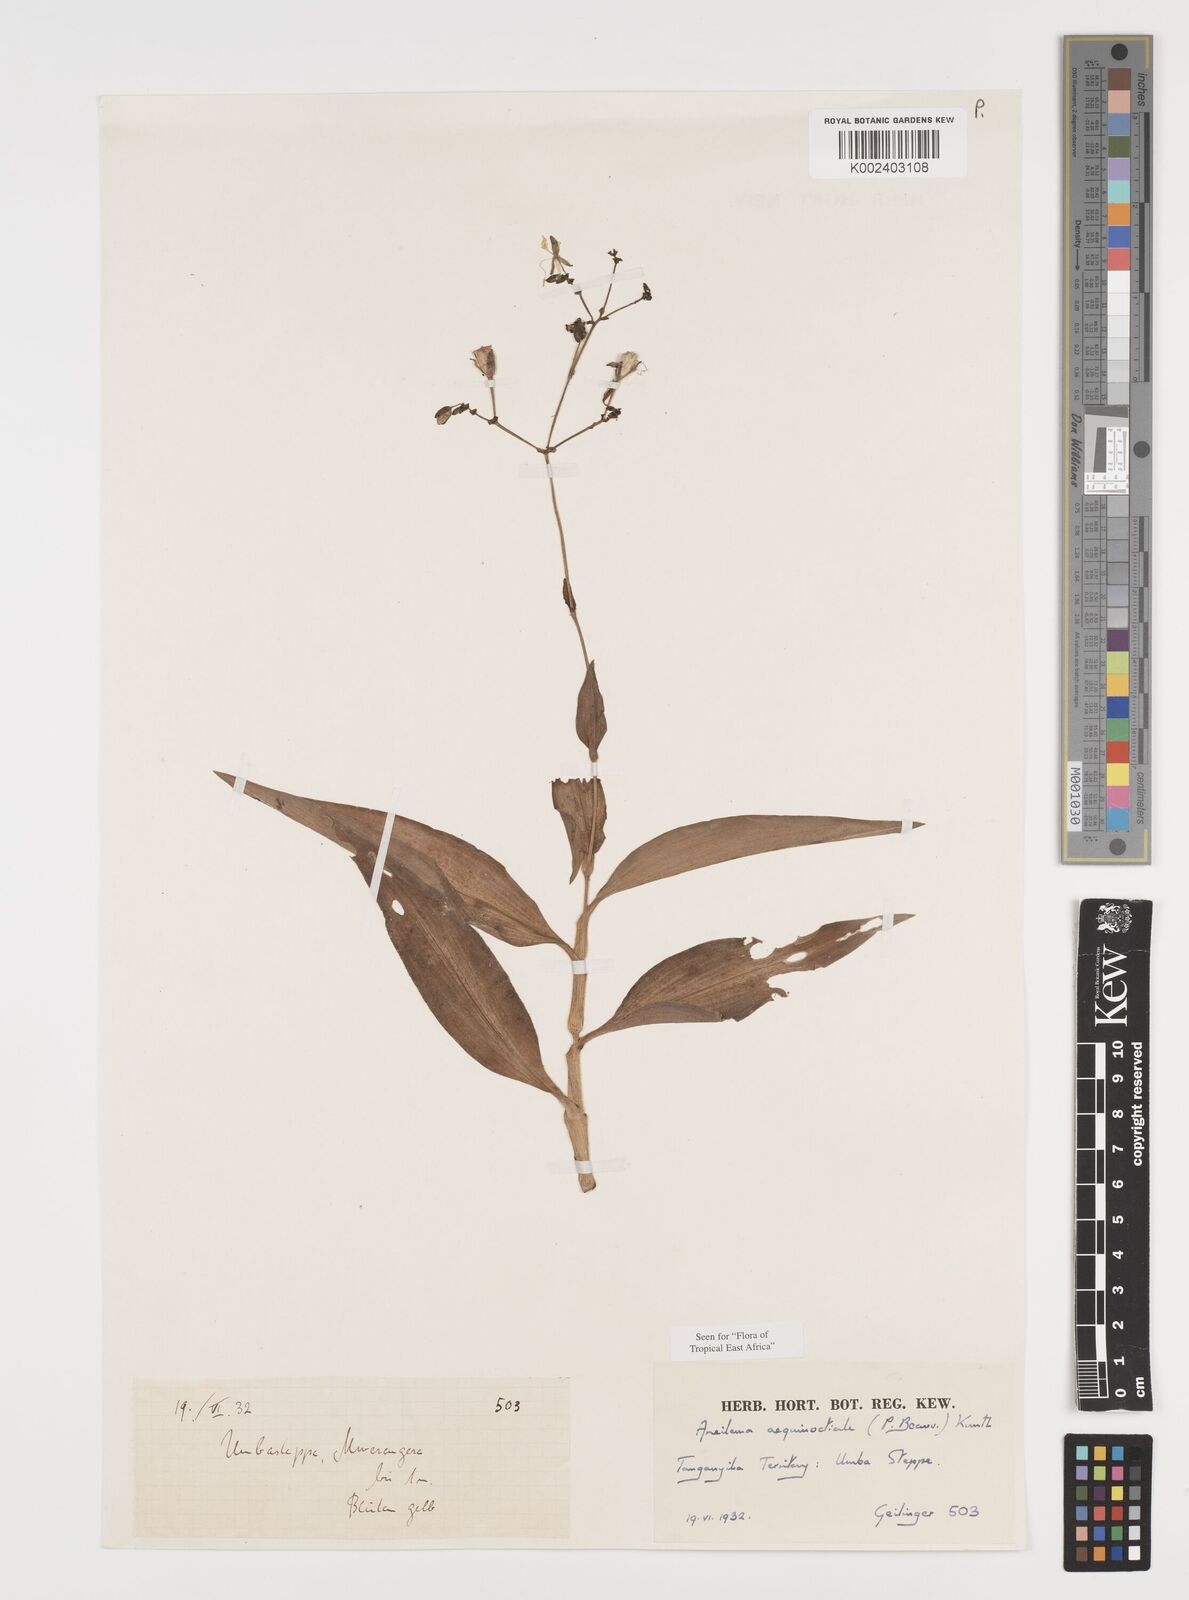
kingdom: Plantae
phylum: Tracheophyta
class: Liliopsida
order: Commelinales
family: Commelinaceae
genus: Aneilema
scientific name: Aneilema aequinoctiale
